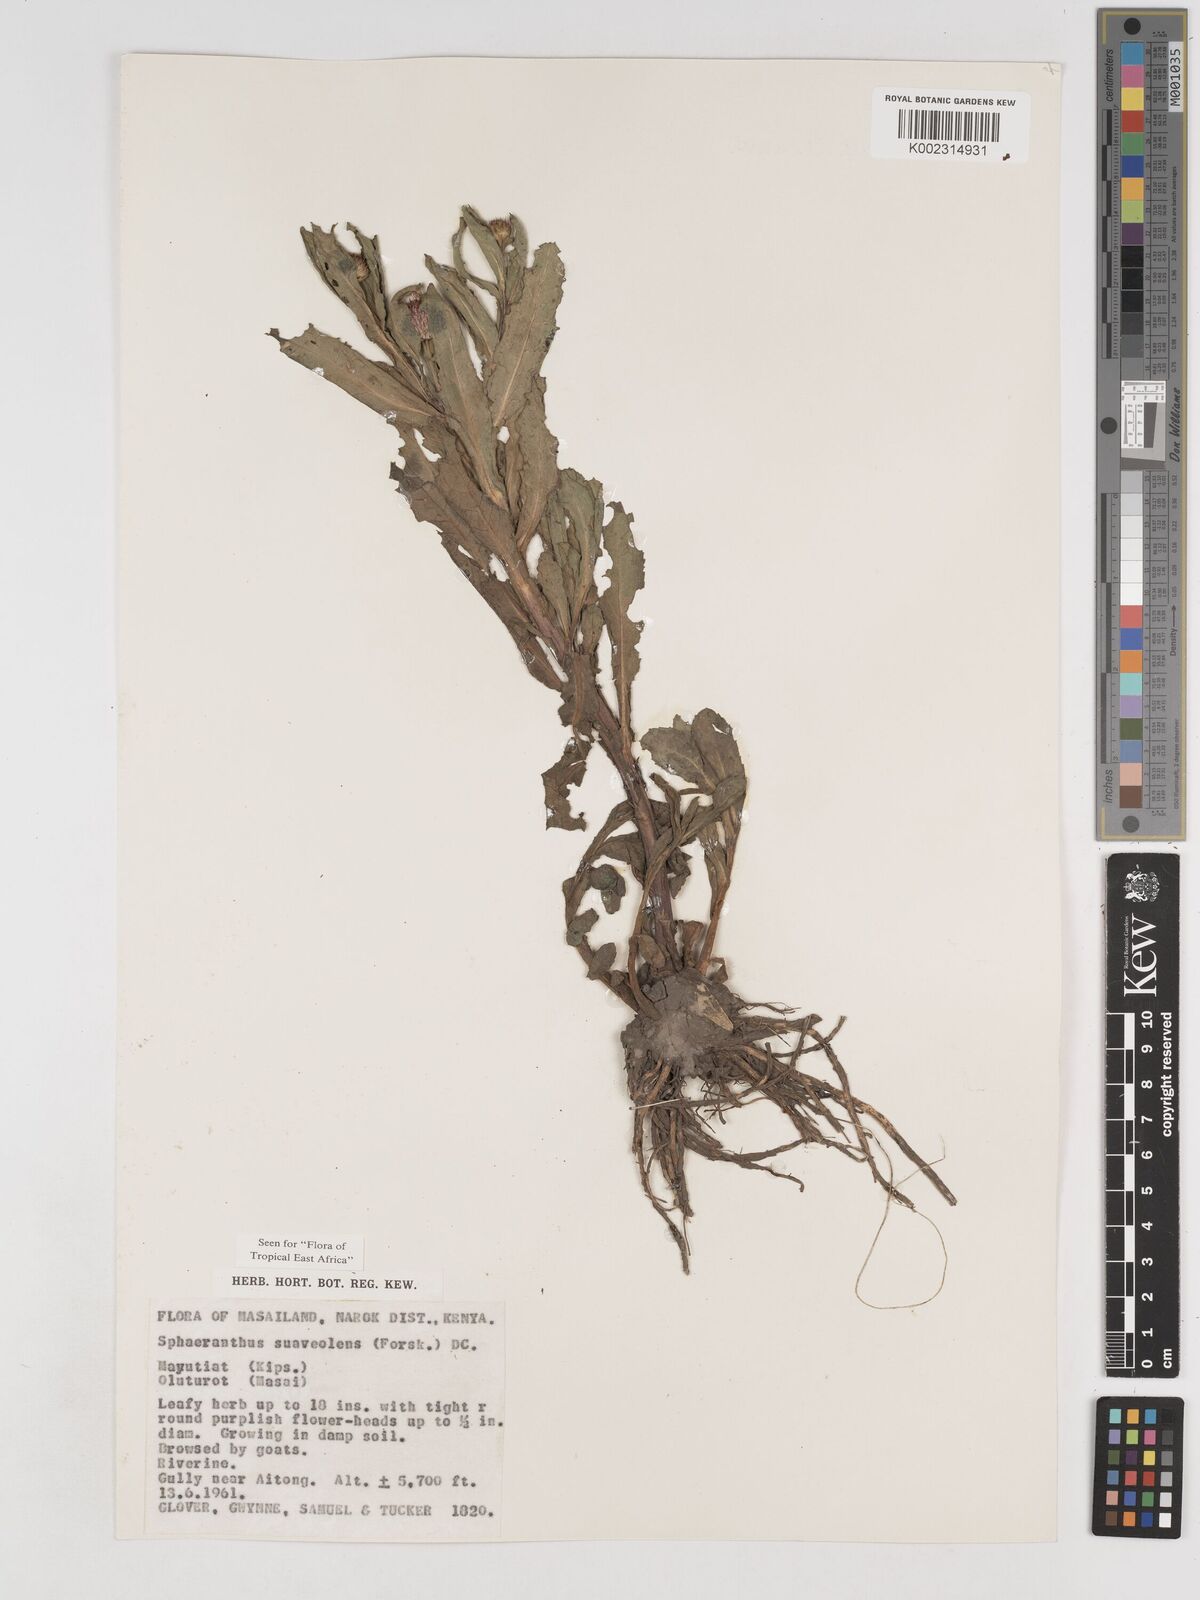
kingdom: Plantae
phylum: Tracheophyta
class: Magnoliopsida
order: Asterales
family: Asteraceae
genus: Sphaeranthus
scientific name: Sphaeranthus suaveolens
